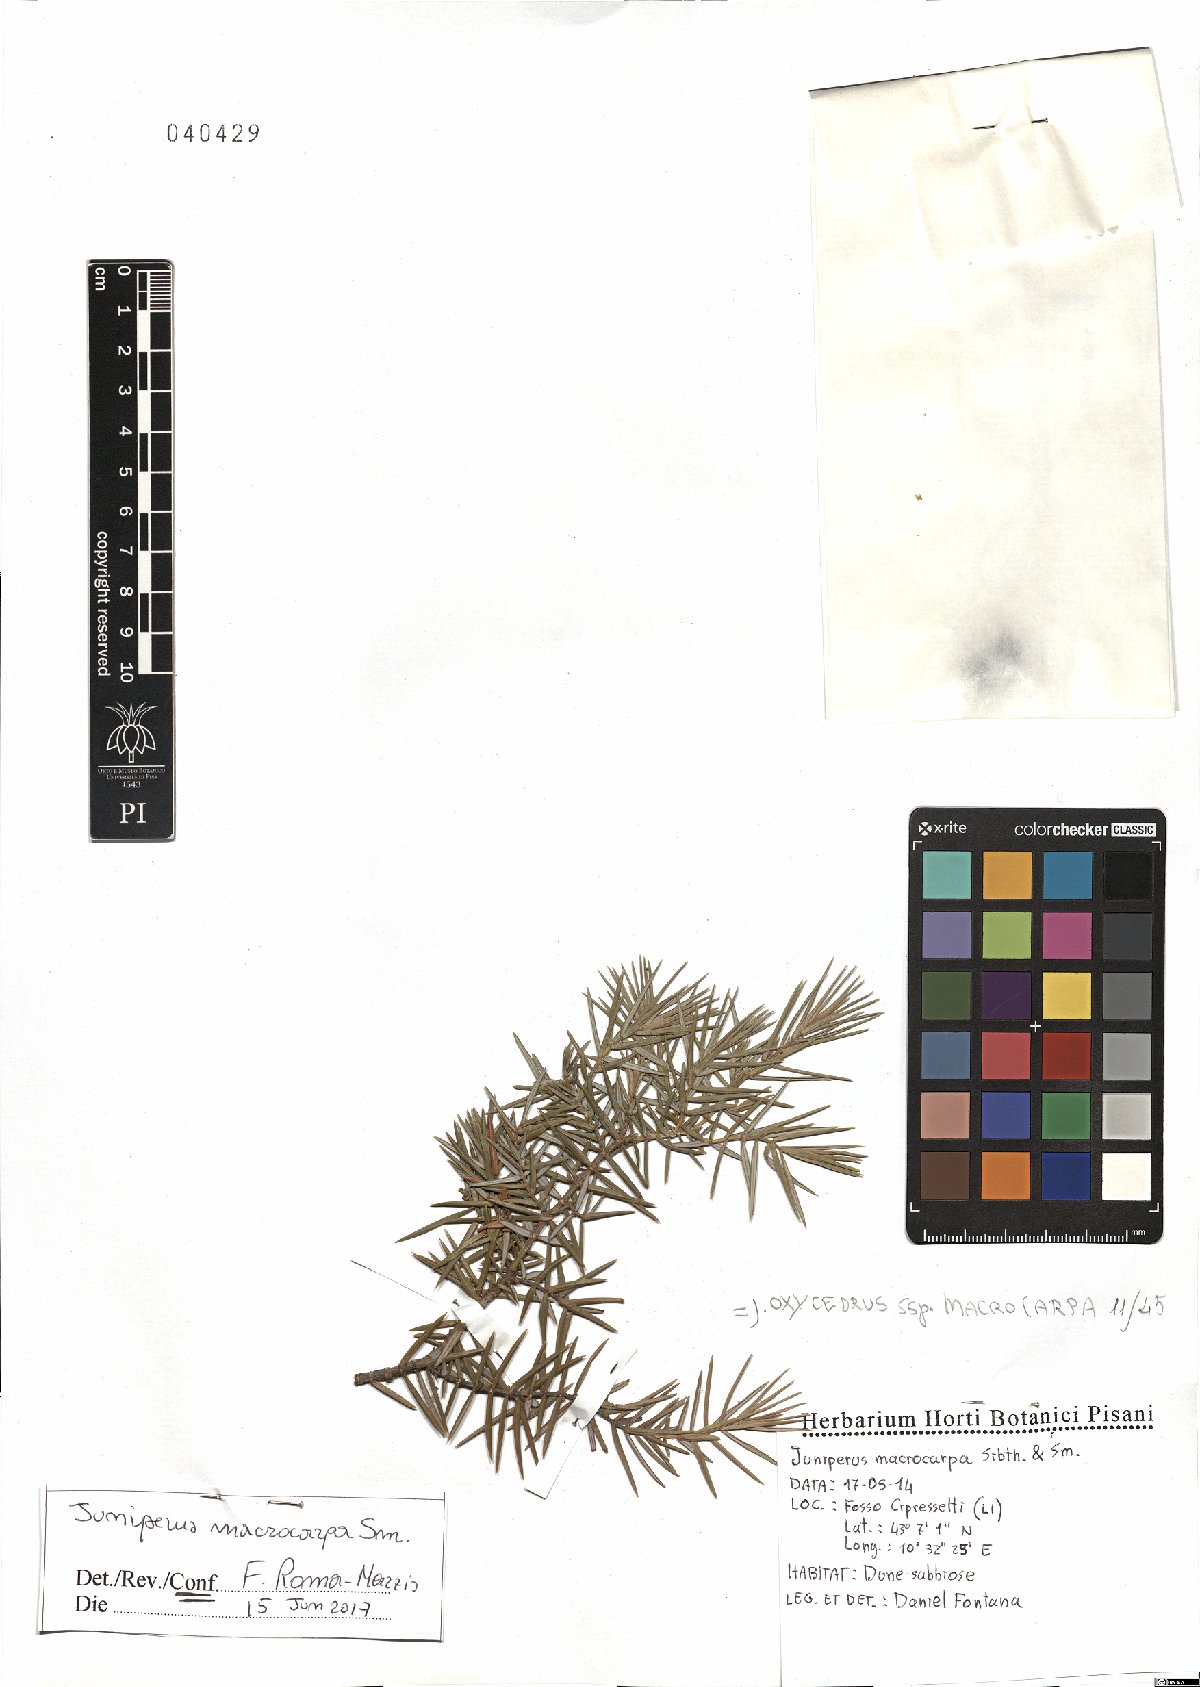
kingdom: Plantae
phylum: Tracheophyta
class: Pinopsida
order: Pinales
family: Cupressaceae
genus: Juniperus
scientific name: Juniperus oxycedrus
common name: Prickly juniper
